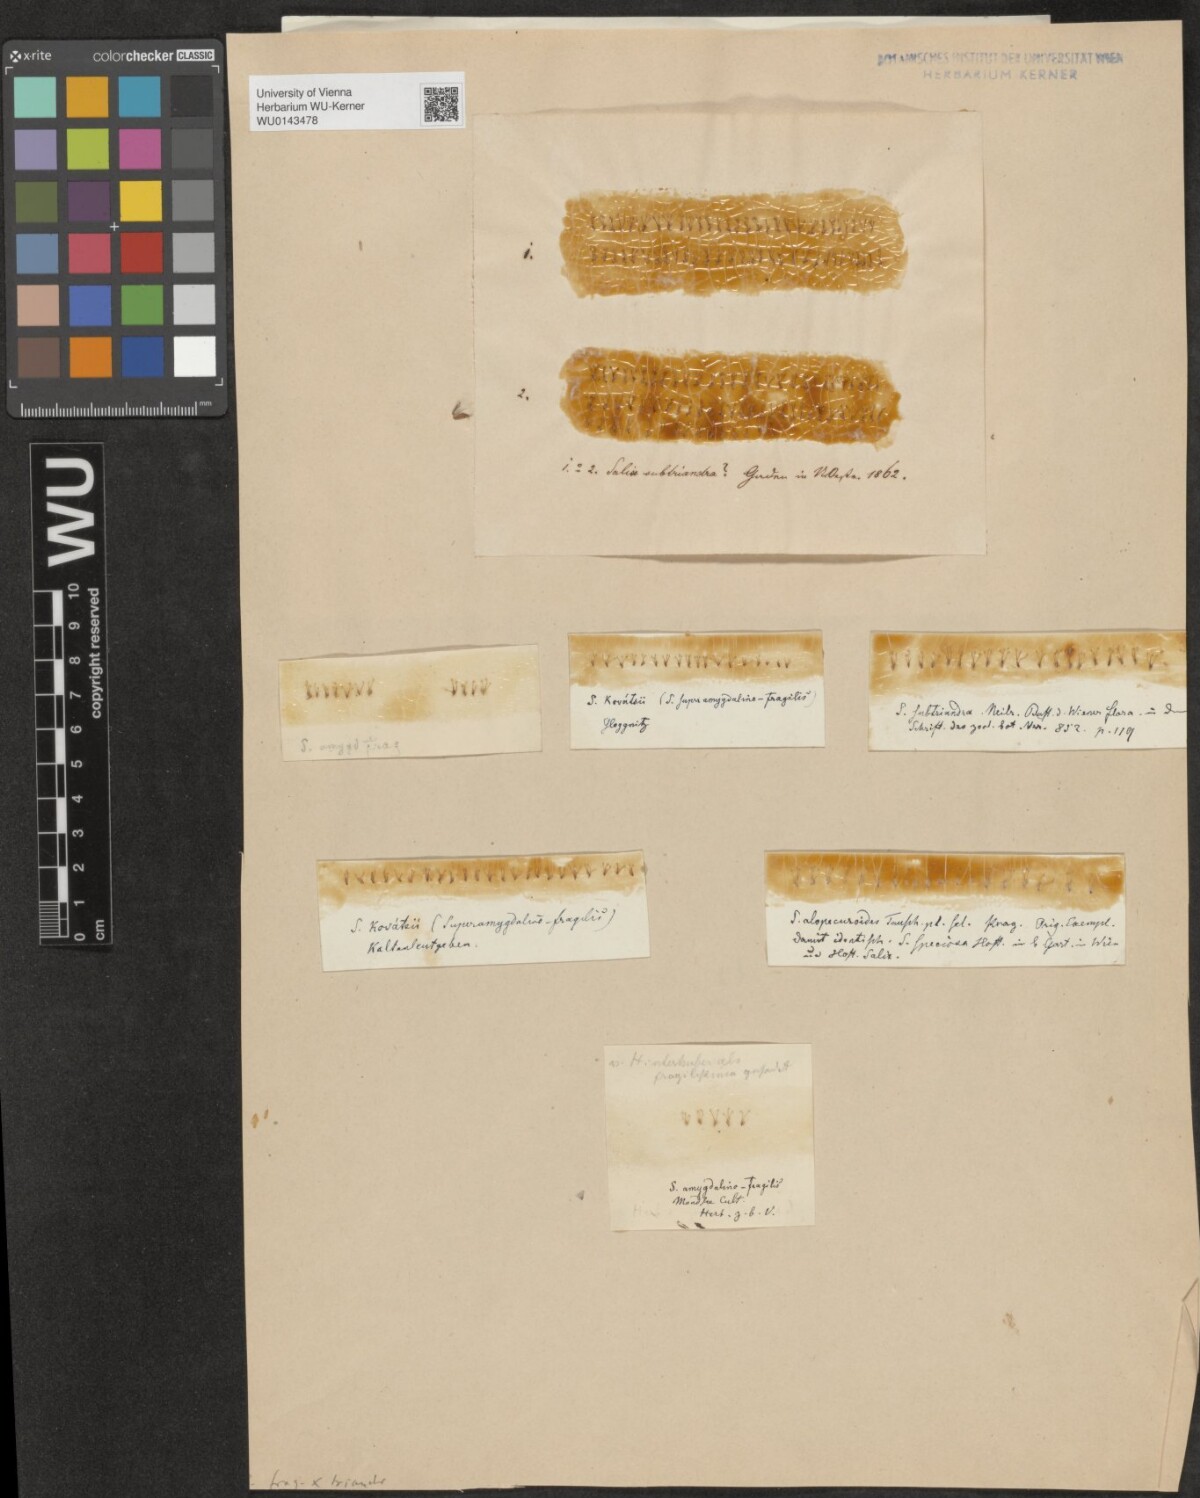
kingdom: Plantae
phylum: Tracheophyta
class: Magnoliopsida
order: Malpighiales
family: Salicaceae
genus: Salix
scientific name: Salix subtriandra
